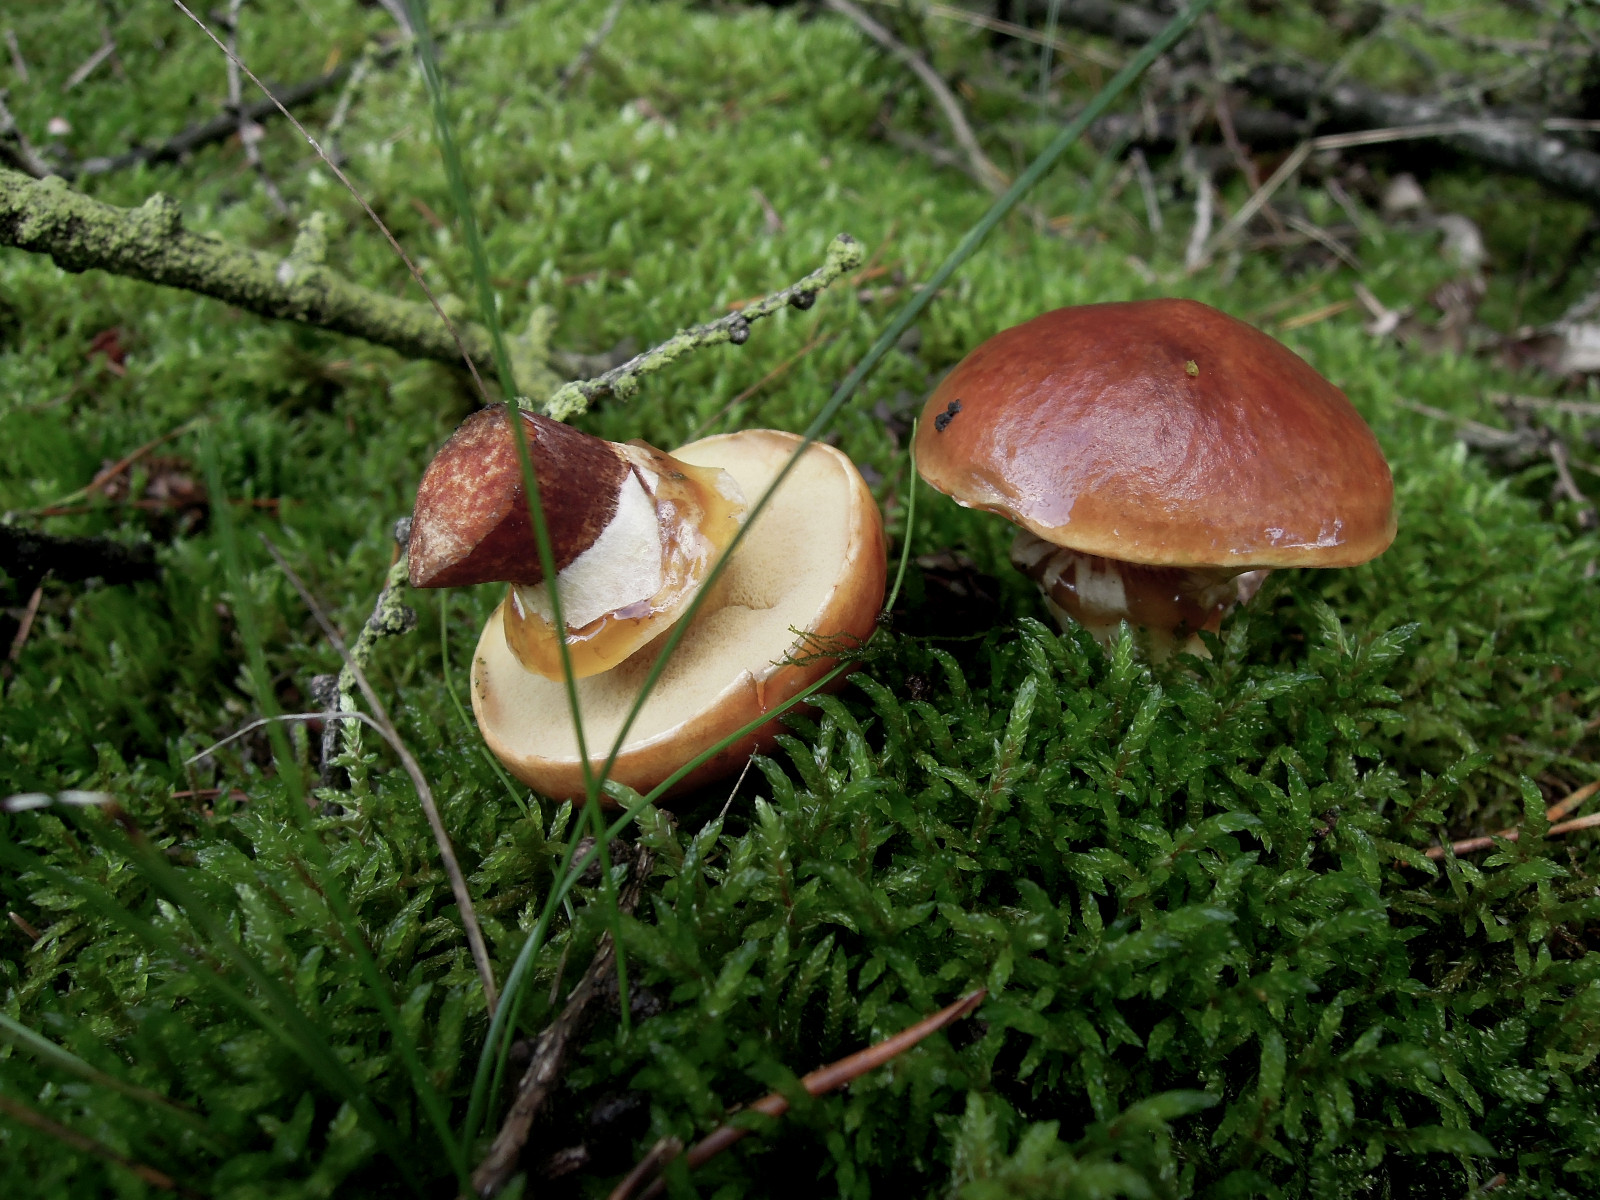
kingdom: Fungi
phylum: Basidiomycota
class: Agaricomycetes
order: Boletales
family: Suillaceae
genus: Suillus
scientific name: Suillus grevillei
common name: Larch bolete
